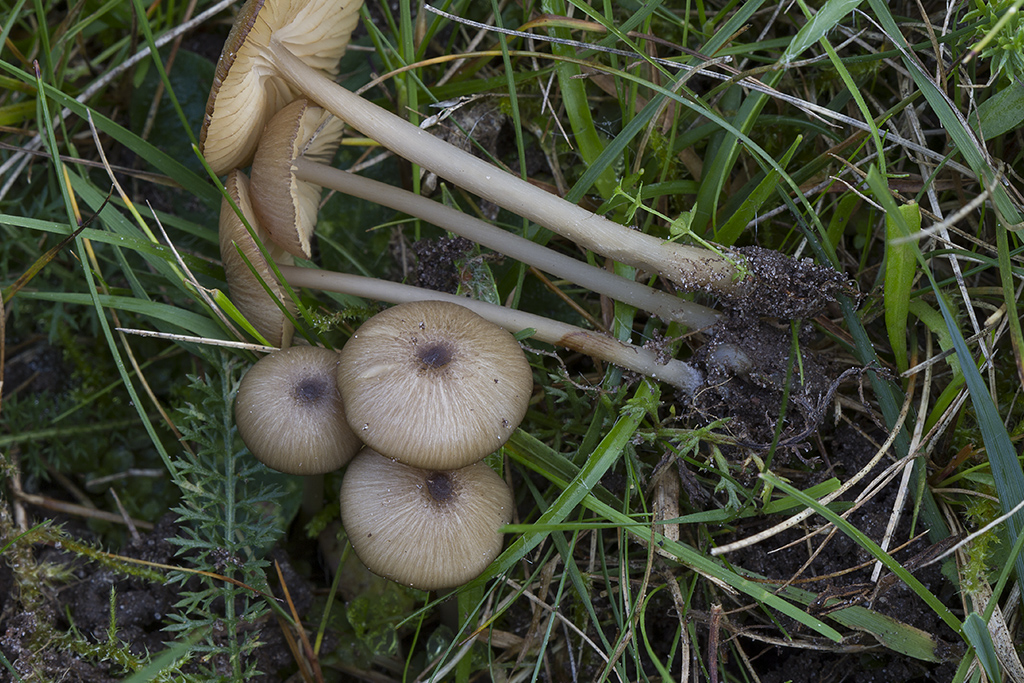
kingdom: Fungi
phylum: Basidiomycota
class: Agaricomycetes
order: Agaricales
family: Entolomataceae
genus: Entoloma
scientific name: Entoloma exile
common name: rødplettet rødblad
